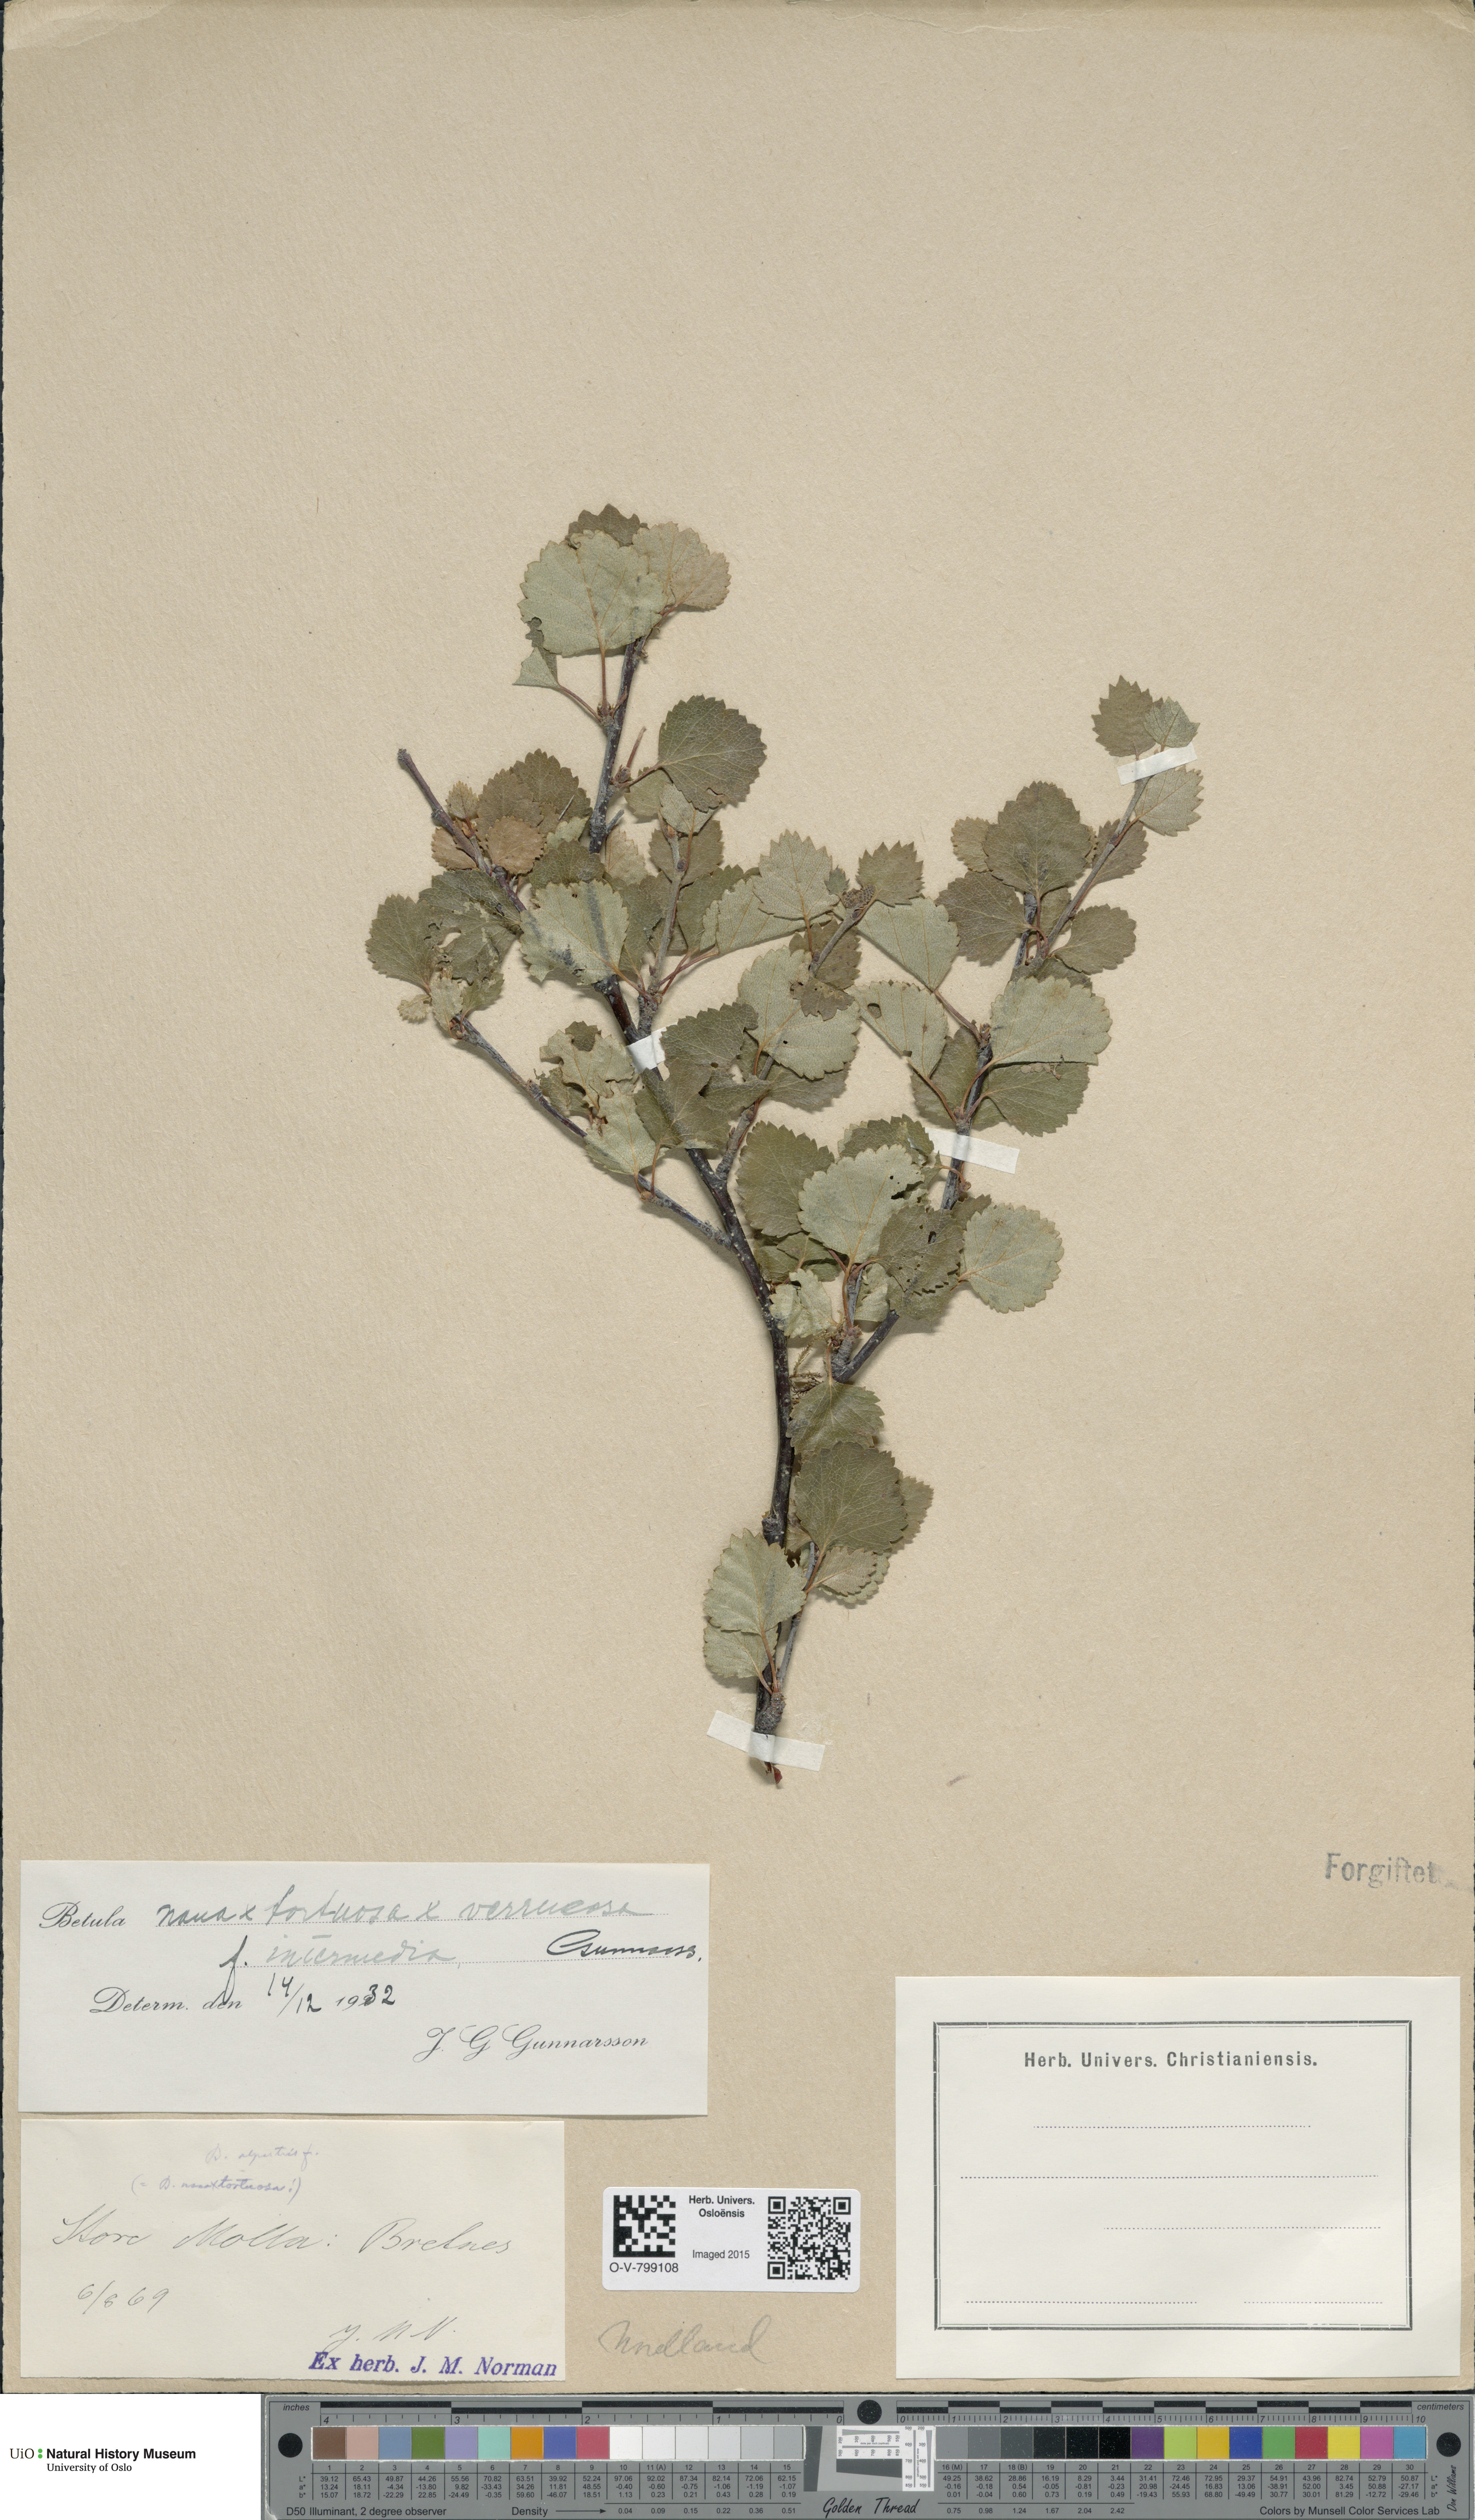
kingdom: Plantae
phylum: Tracheophyta
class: Magnoliopsida
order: Fagales
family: Betulaceae
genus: Betula
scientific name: Betula nana
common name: Arctic dwarf birch
